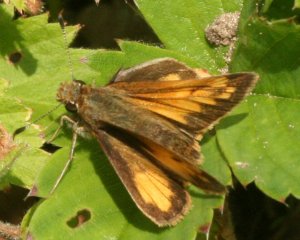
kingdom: Animalia
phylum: Arthropoda
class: Insecta
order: Lepidoptera
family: Hesperiidae
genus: Lon
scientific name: Lon hobomok
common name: Hobomok Skipper
